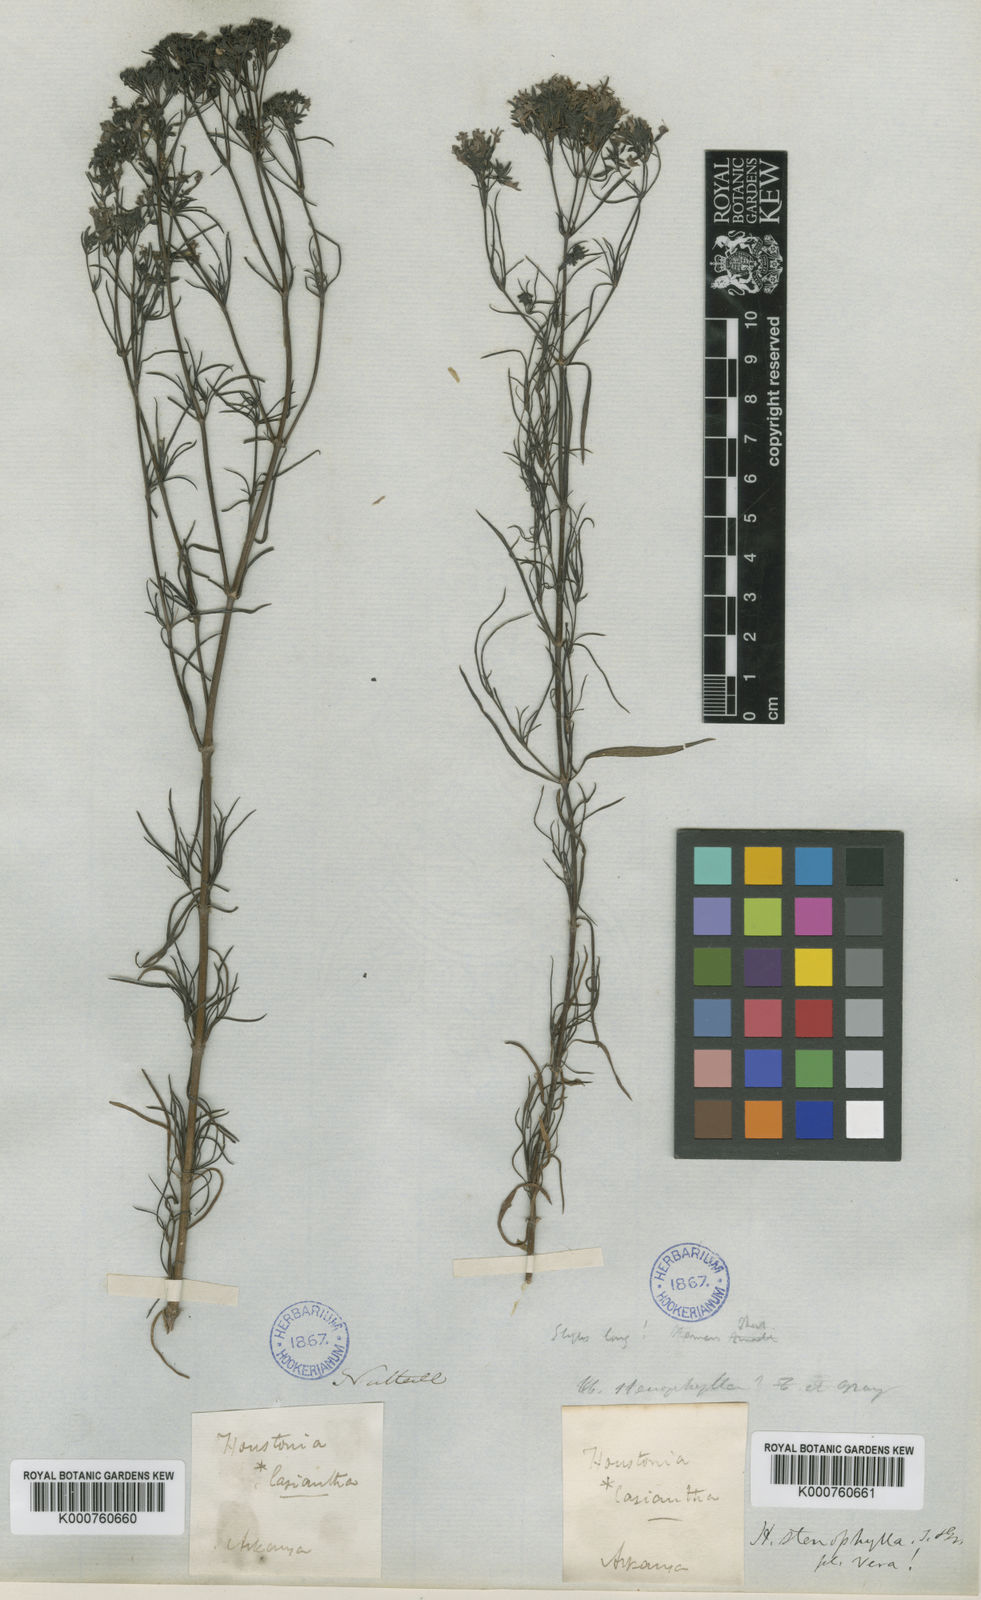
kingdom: Plantae
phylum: Tracheophyta
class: Magnoliopsida
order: Gentianales
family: Rubiaceae
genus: Stenaria
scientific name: Stenaria nigricans
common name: Diamondflowers
